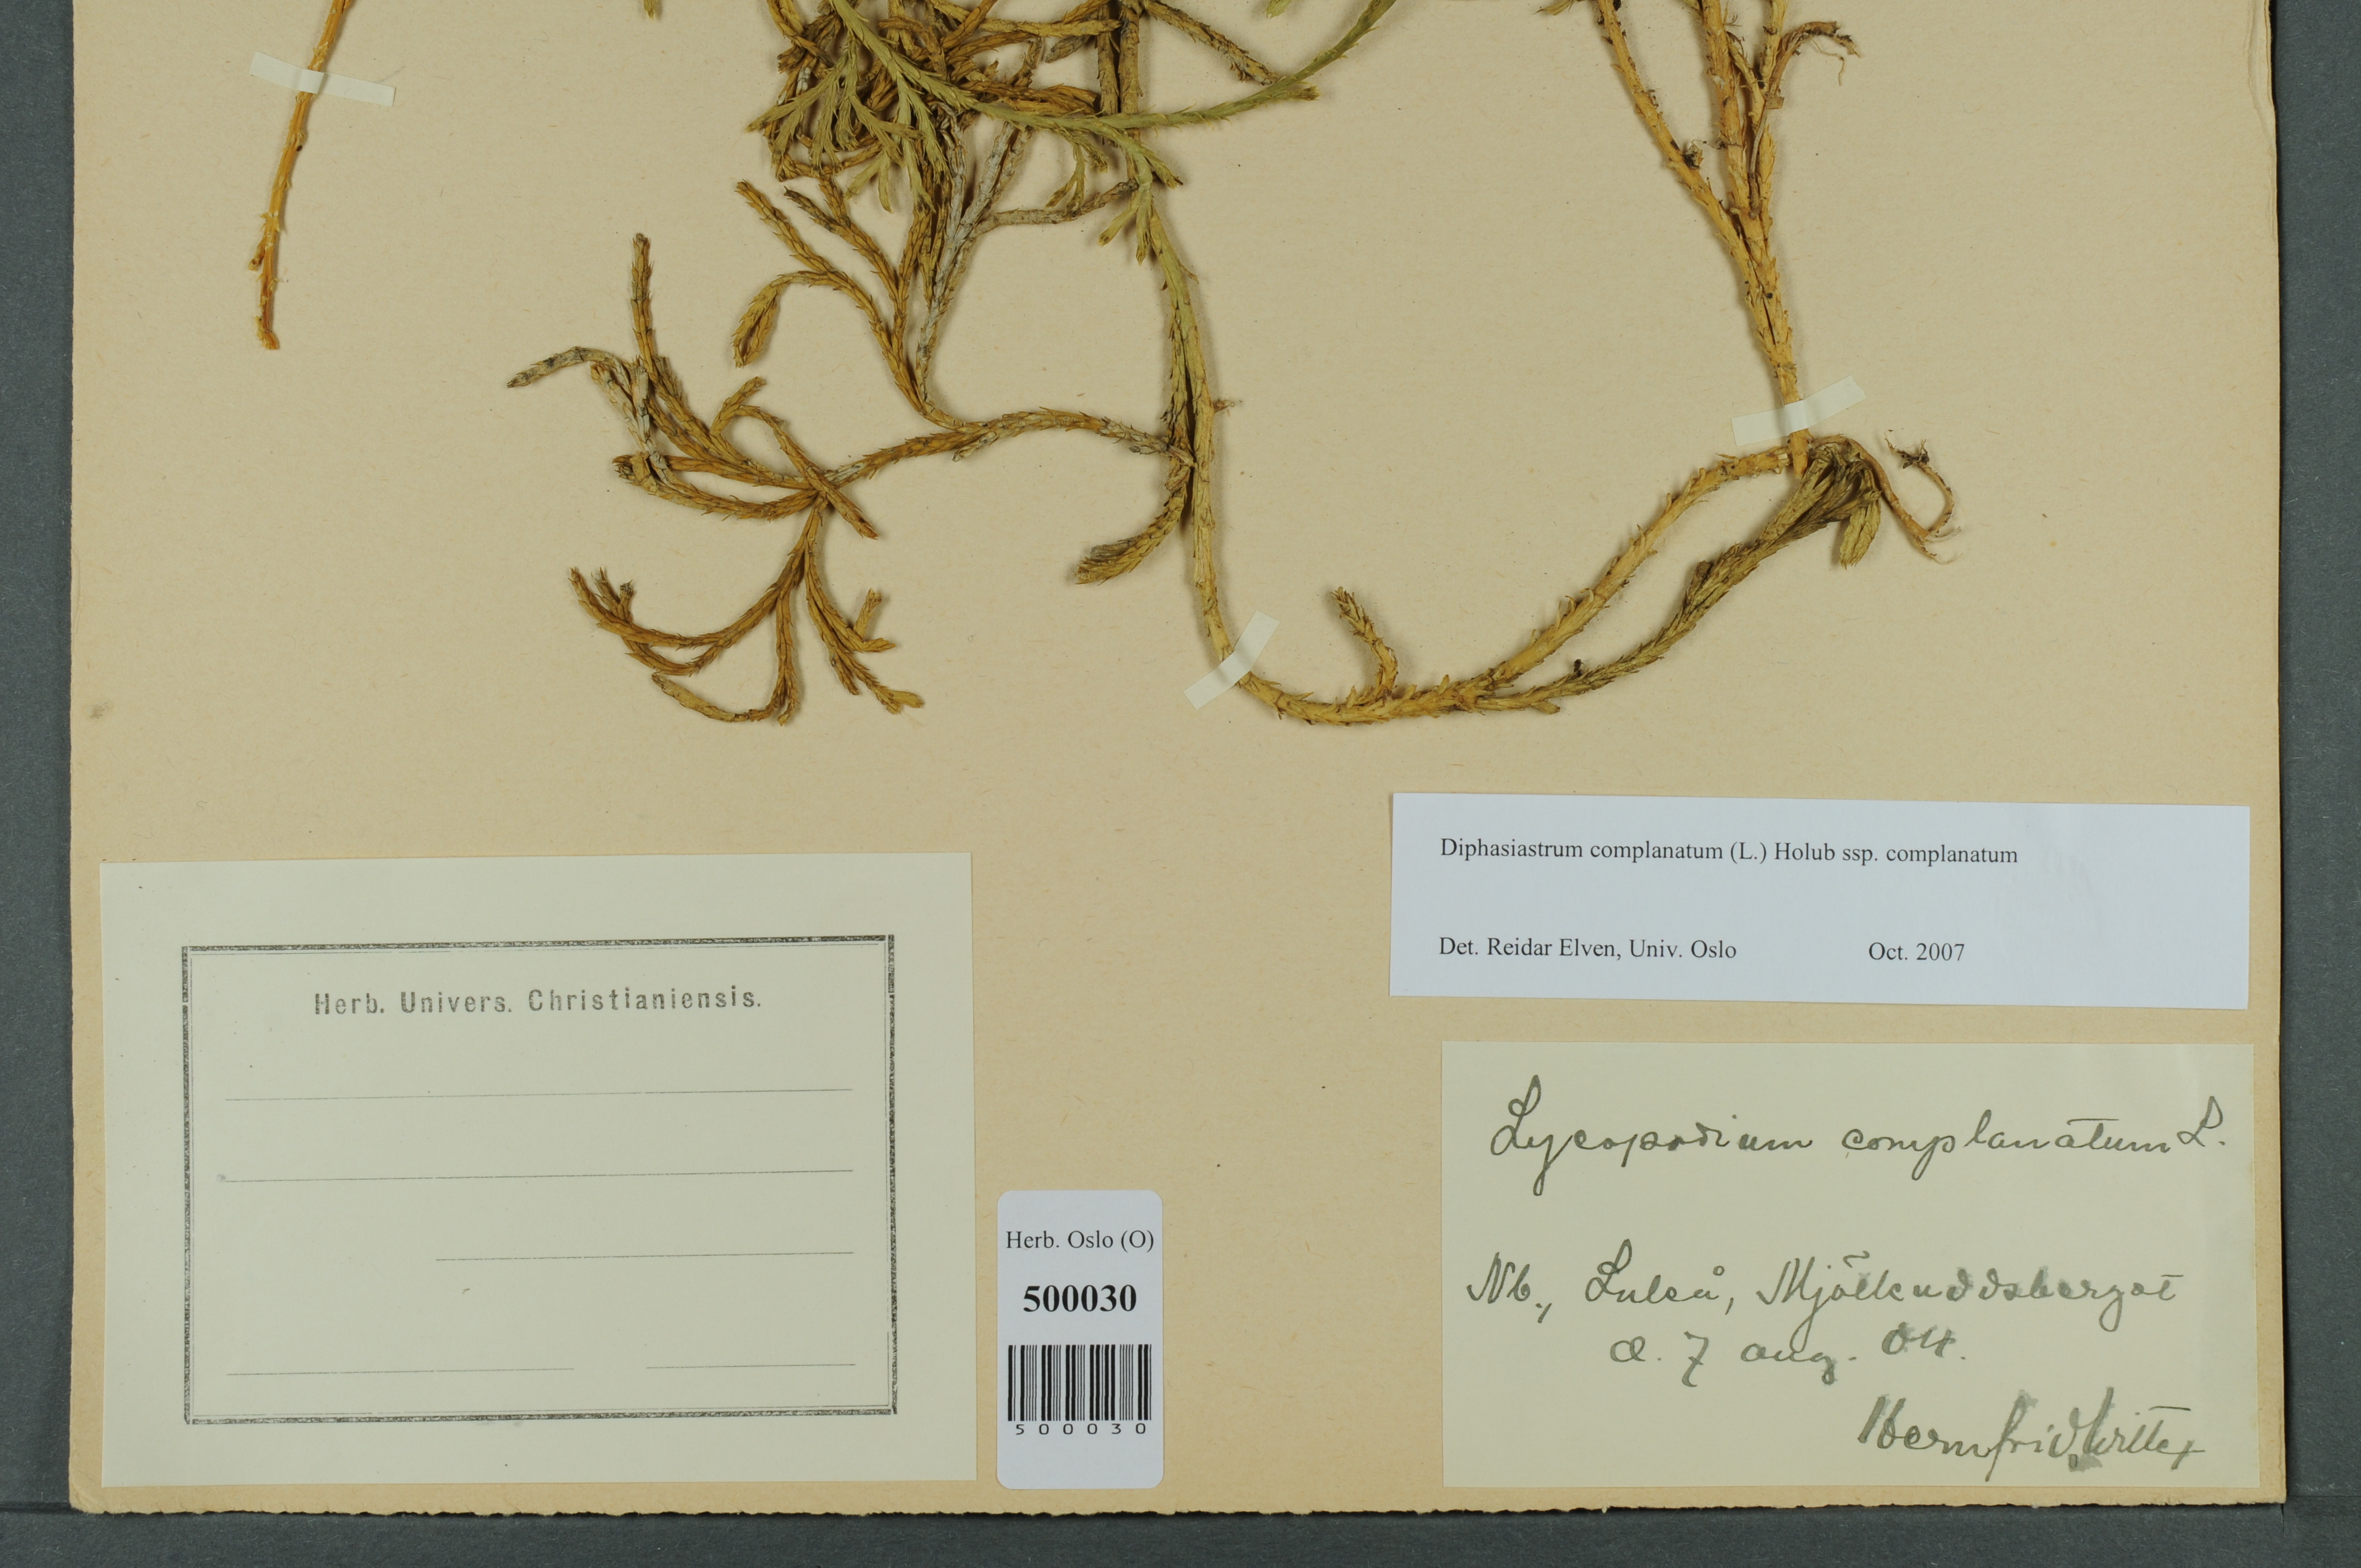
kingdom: Plantae
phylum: Tracheophyta
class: Lycopodiopsida
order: Lycopodiales
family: Lycopodiaceae
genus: Diphasiastrum
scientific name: Diphasiastrum complanatum
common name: Northern running-pine
